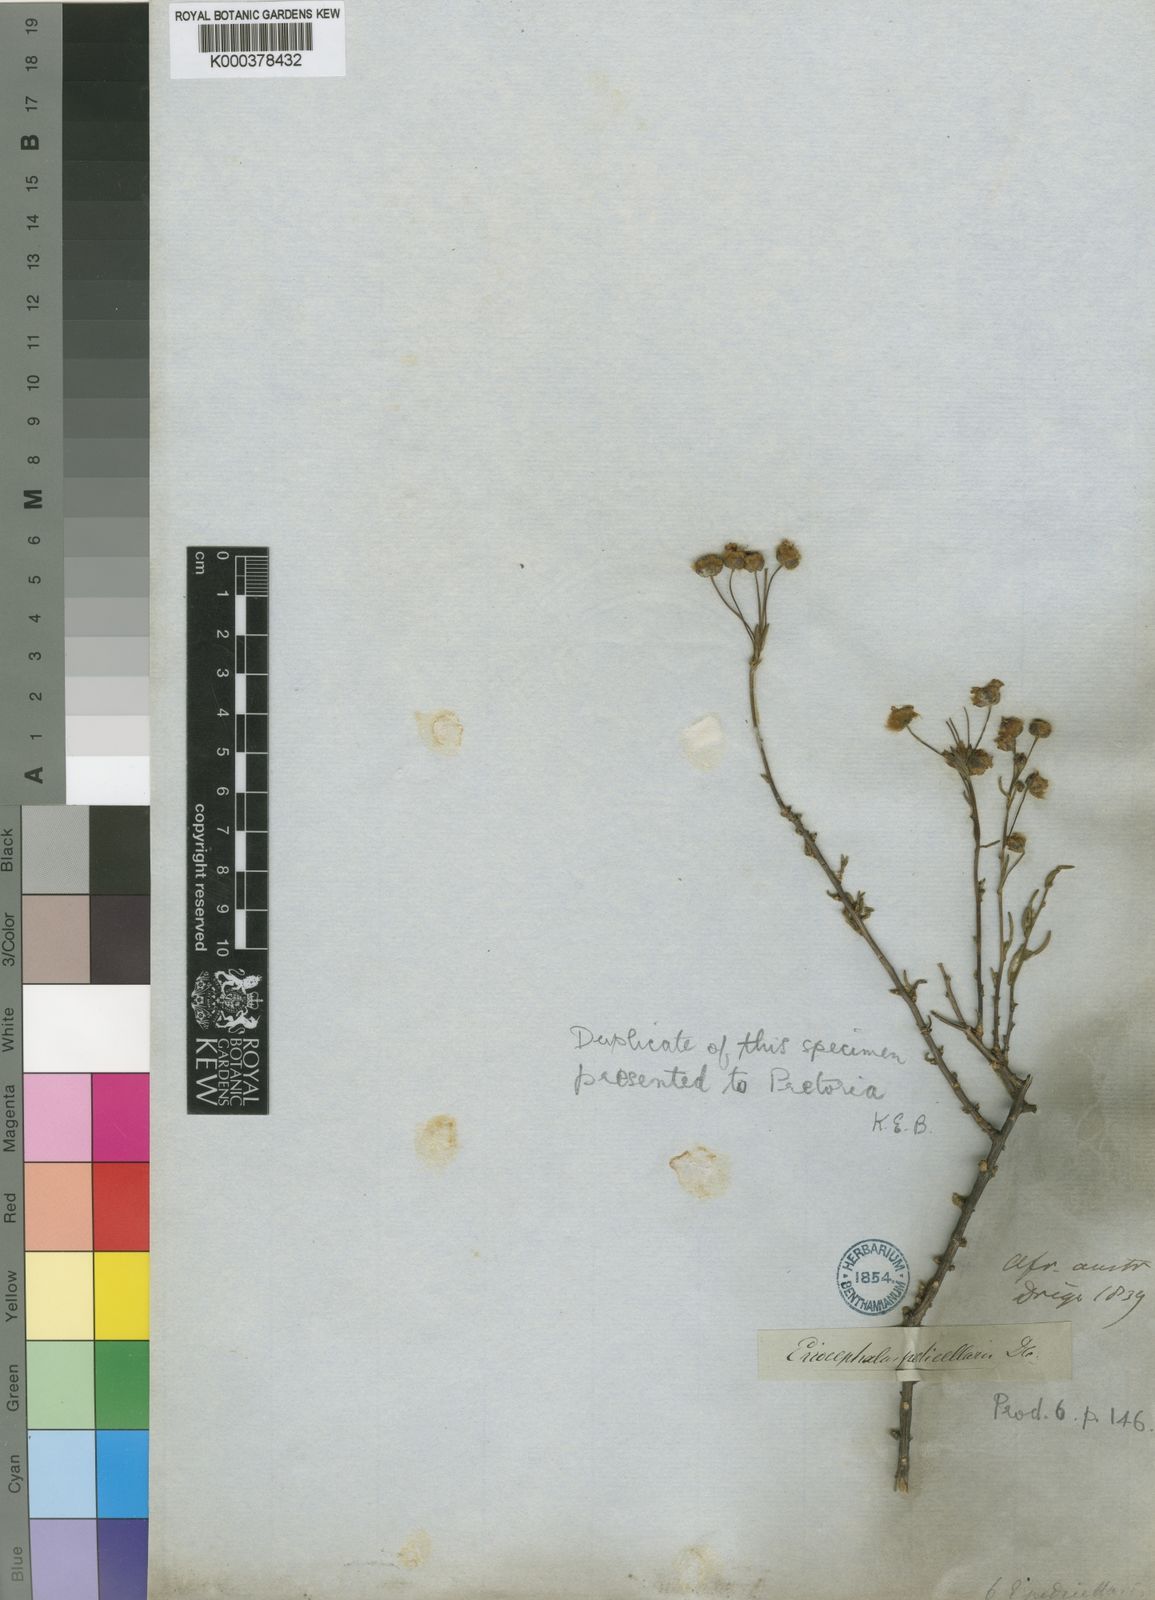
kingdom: Plantae
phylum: Tracheophyta
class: Magnoliopsida
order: Asterales
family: Asteraceae
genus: Eriocephalus
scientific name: Eriocephalus punctulatus
